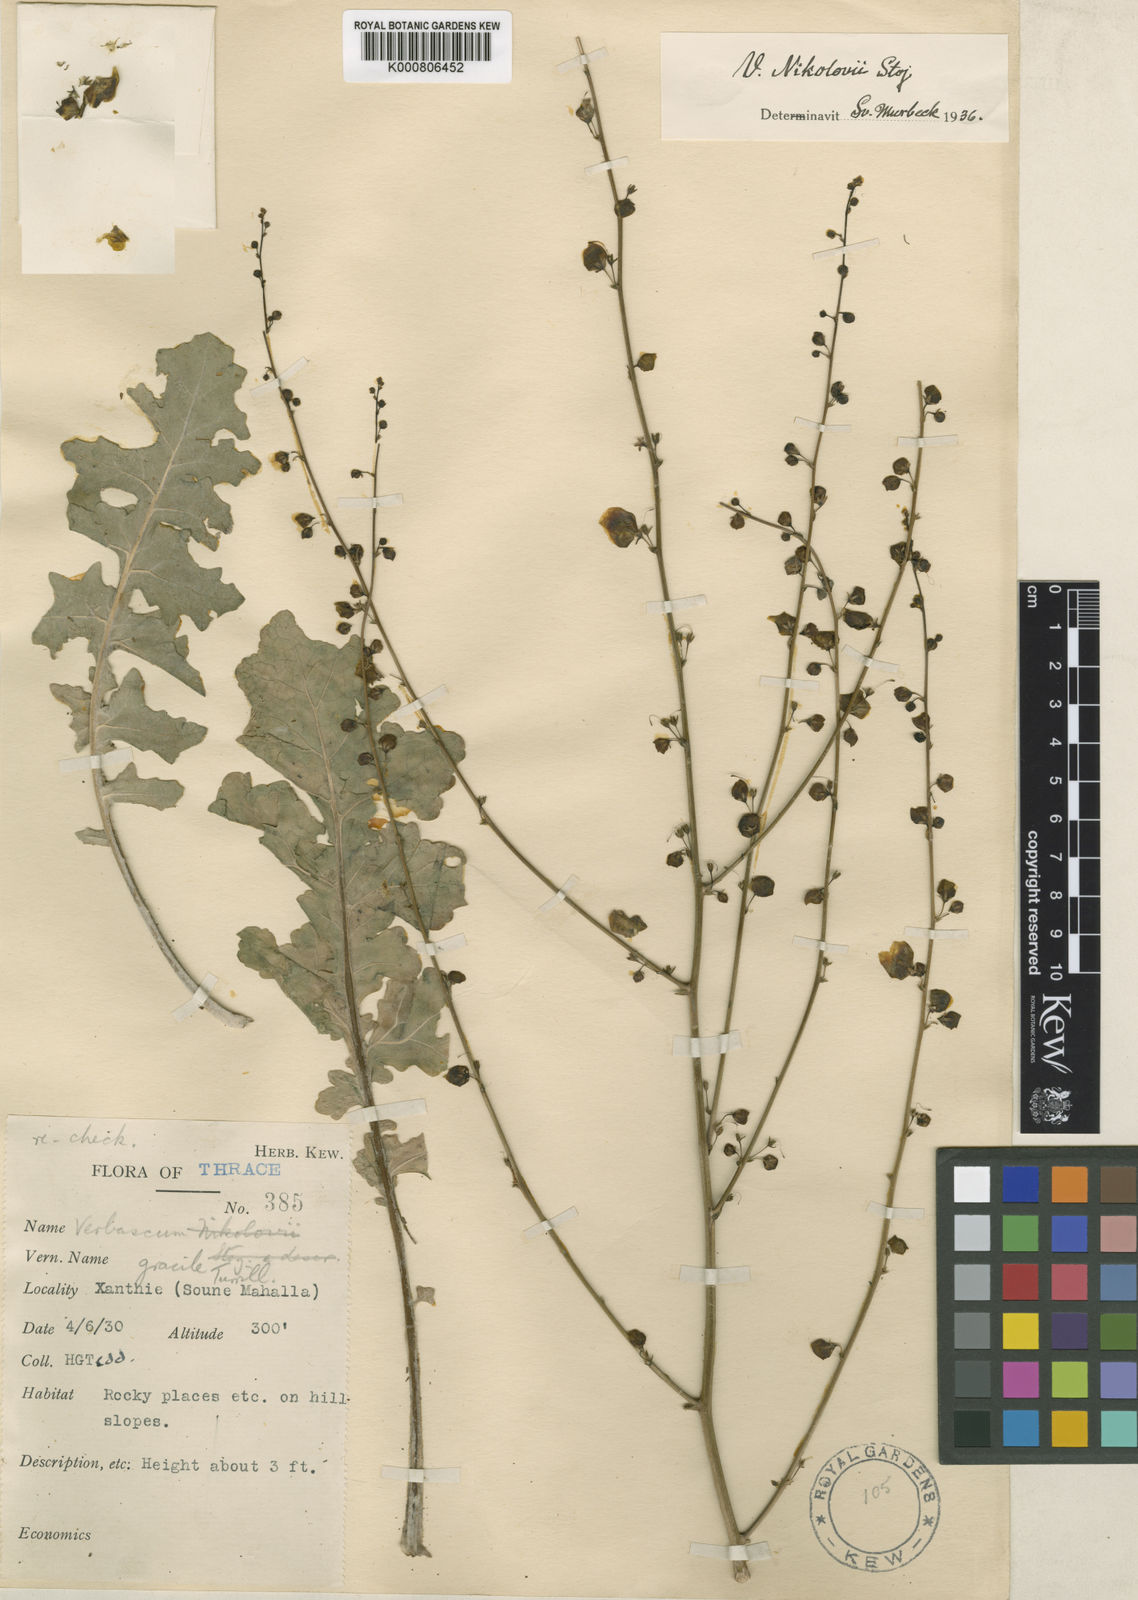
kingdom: Plantae
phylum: Tracheophyta
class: Magnoliopsida
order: Lamiales
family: Scrophulariaceae
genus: Verbascum
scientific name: Verbascum graecum
